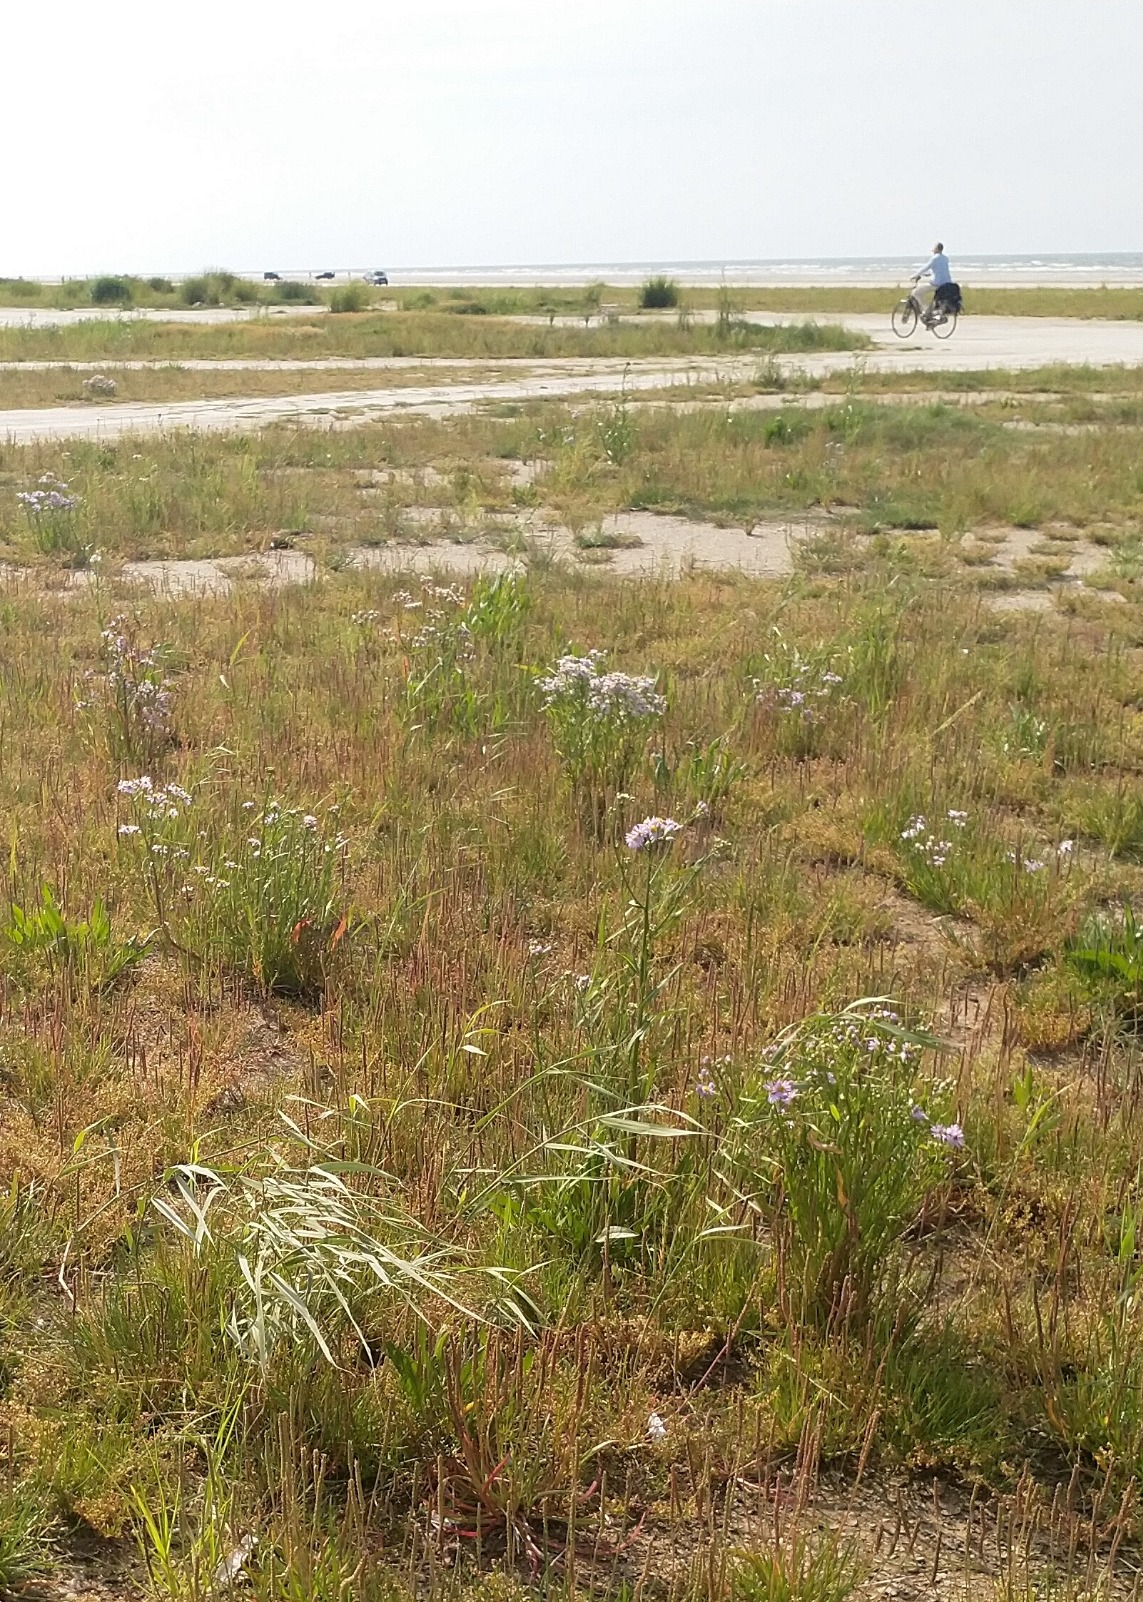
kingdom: Plantae
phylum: Tracheophyta
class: Magnoliopsida
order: Asterales
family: Asteraceae
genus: Tripolium
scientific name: Tripolium pannonicum
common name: Strandasters
